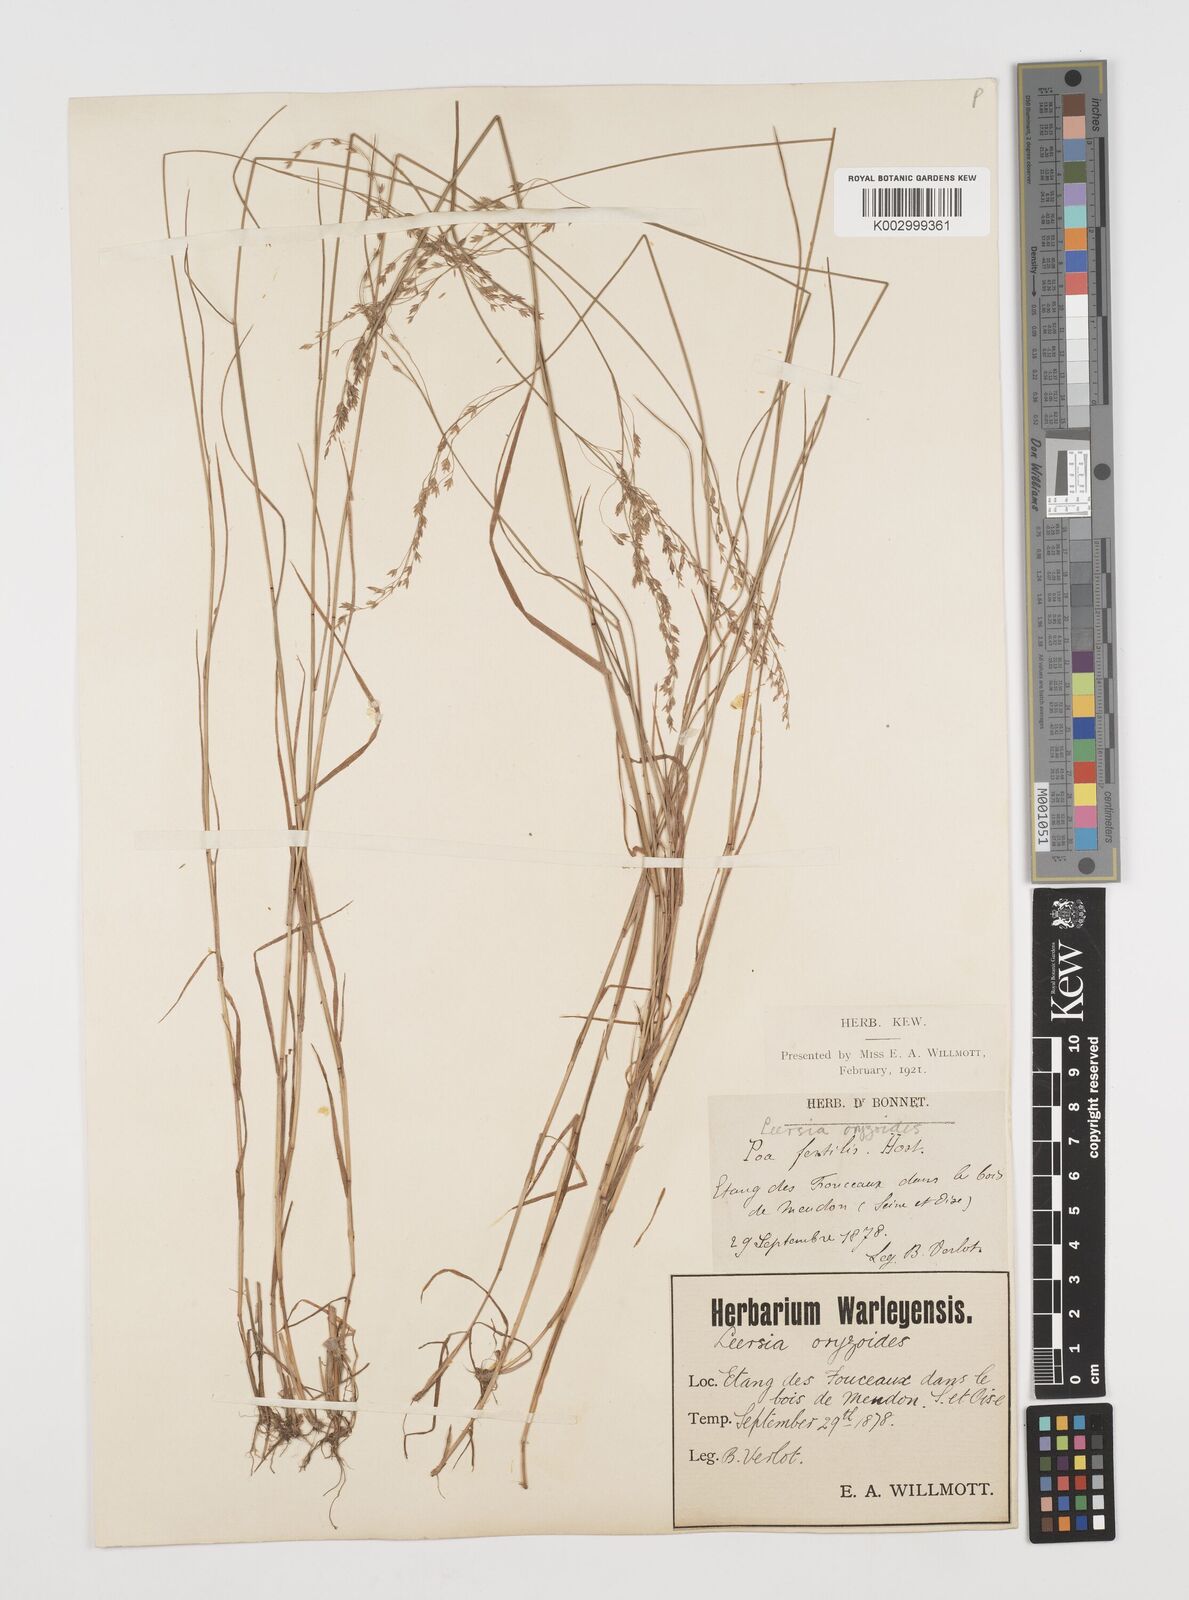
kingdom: Plantae
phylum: Tracheophyta
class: Liliopsida
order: Poales
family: Poaceae
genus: Leersia
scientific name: Leersia oryzoides
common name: Cut-grass
